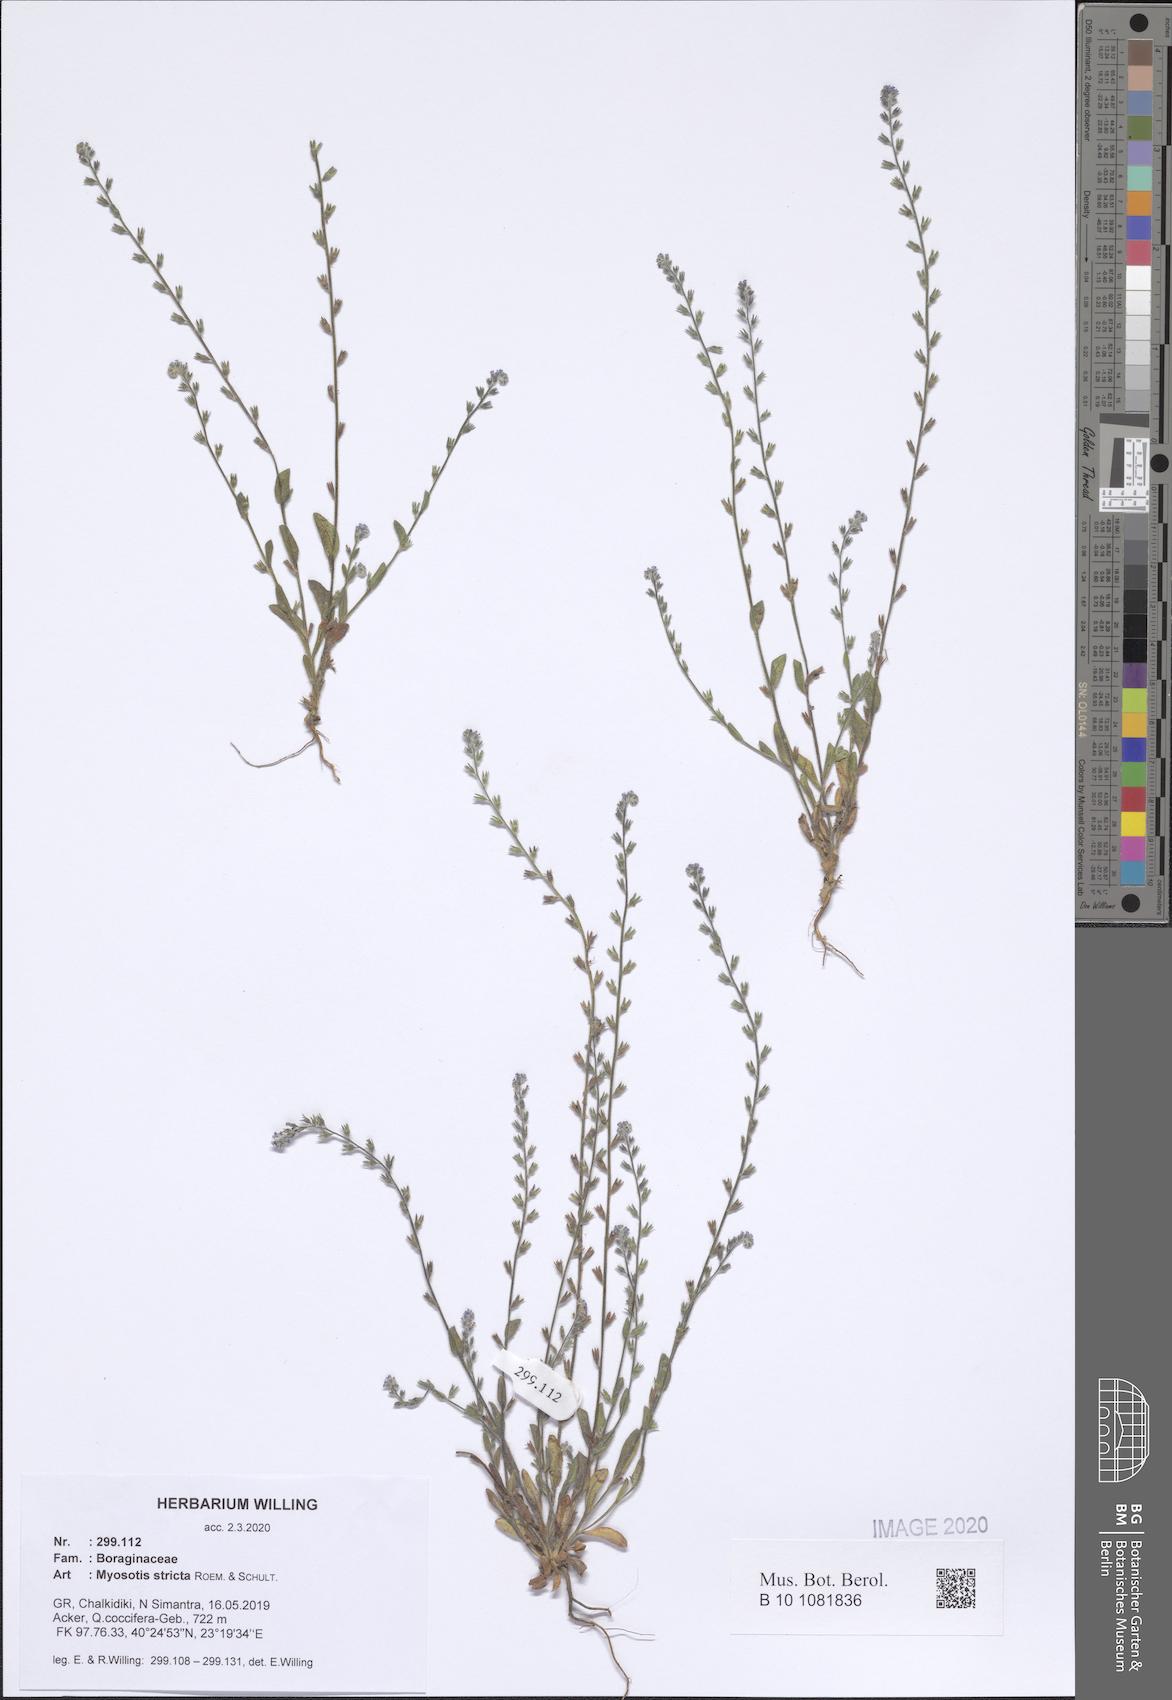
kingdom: Plantae
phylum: Tracheophyta
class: Magnoliopsida
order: Boraginales
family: Boraginaceae
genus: Myosotis
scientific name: Myosotis stricta
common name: Strict forget-me-not
